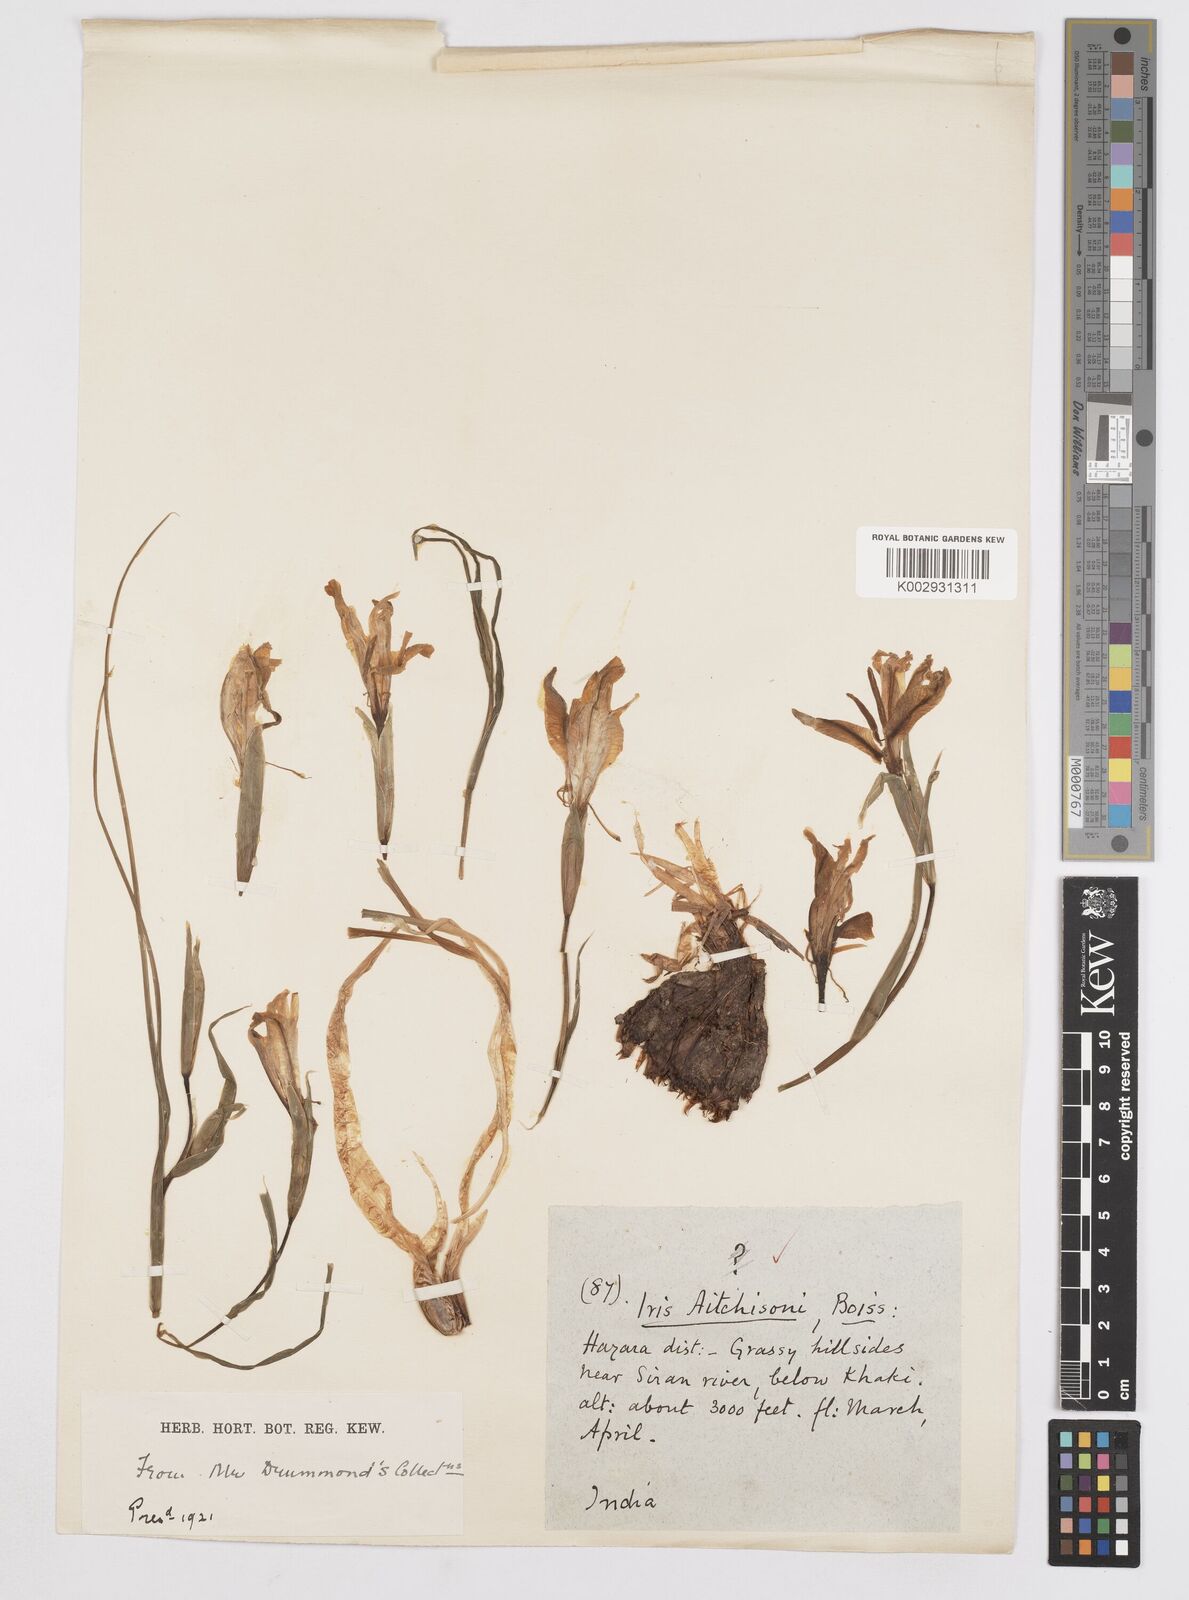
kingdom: Plantae
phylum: Tracheophyta
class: Liliopsida
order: Asparagales
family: Iridaceae
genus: Iris
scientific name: Iris aitchisonii
